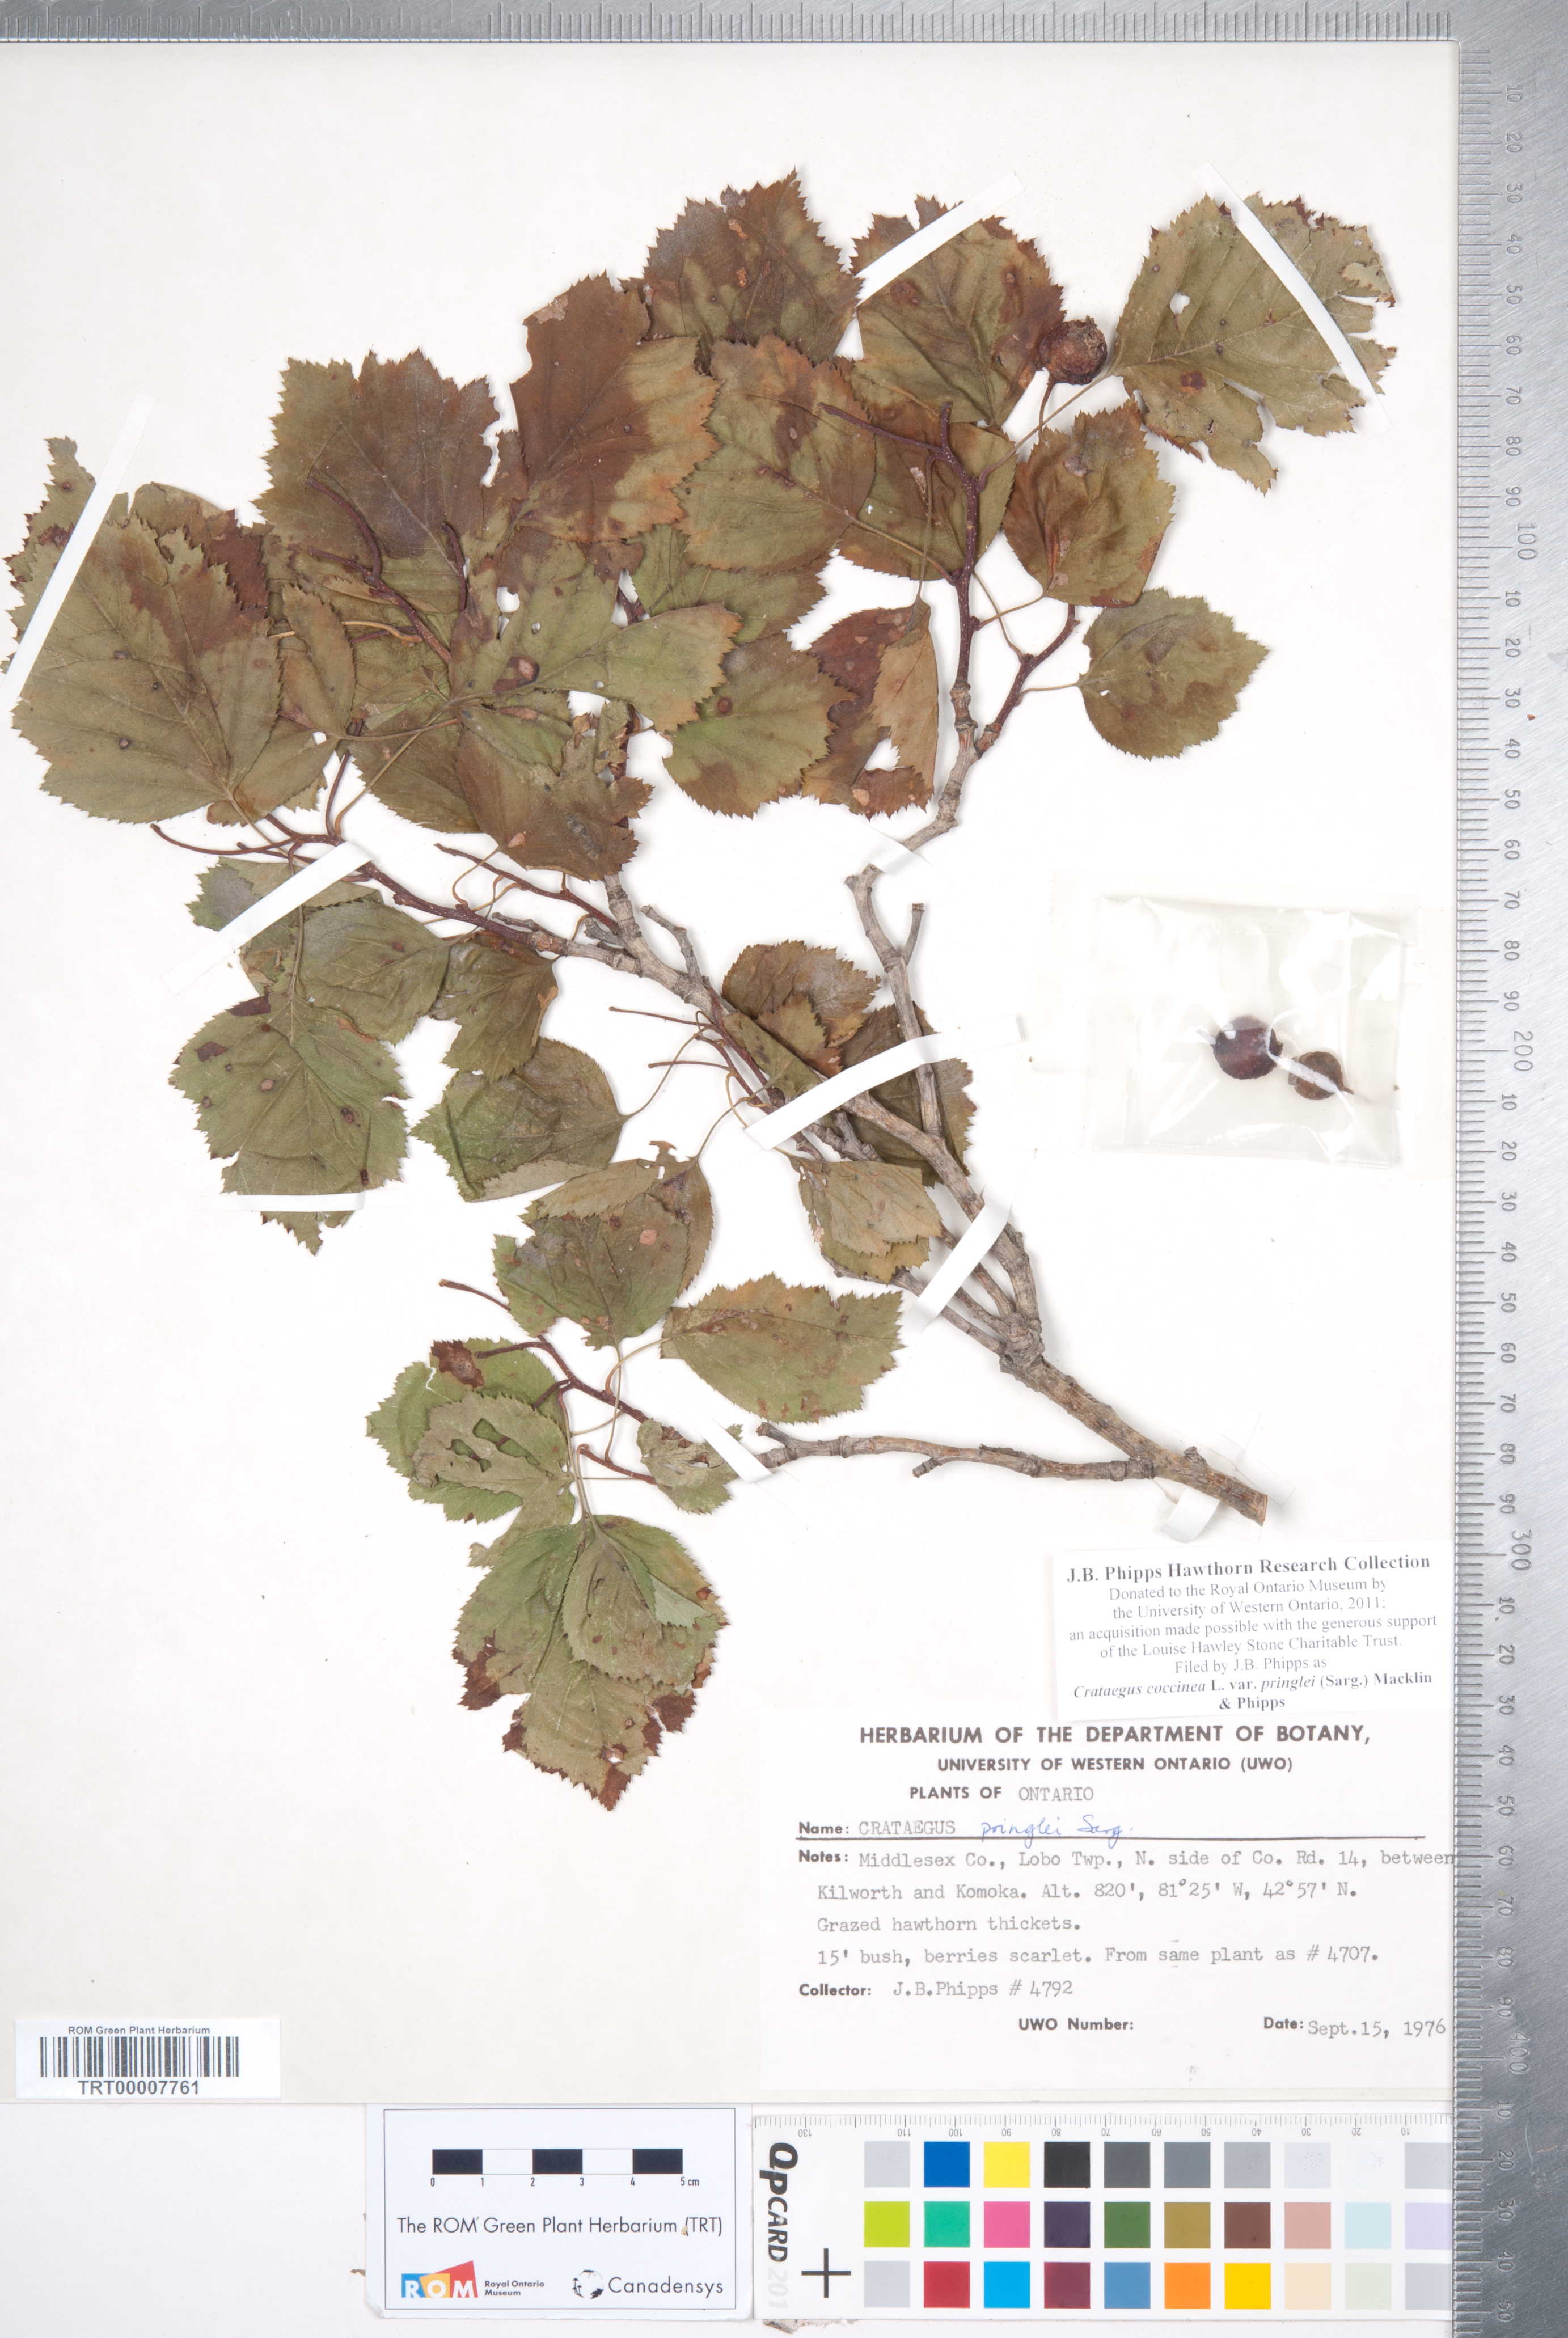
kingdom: Plantae
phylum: Tracheophyta
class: Magnoliopsida
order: Rosales
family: Rosaceae
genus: Crataegus
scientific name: Crataegus coccinea
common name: Scarlet hawthorn
